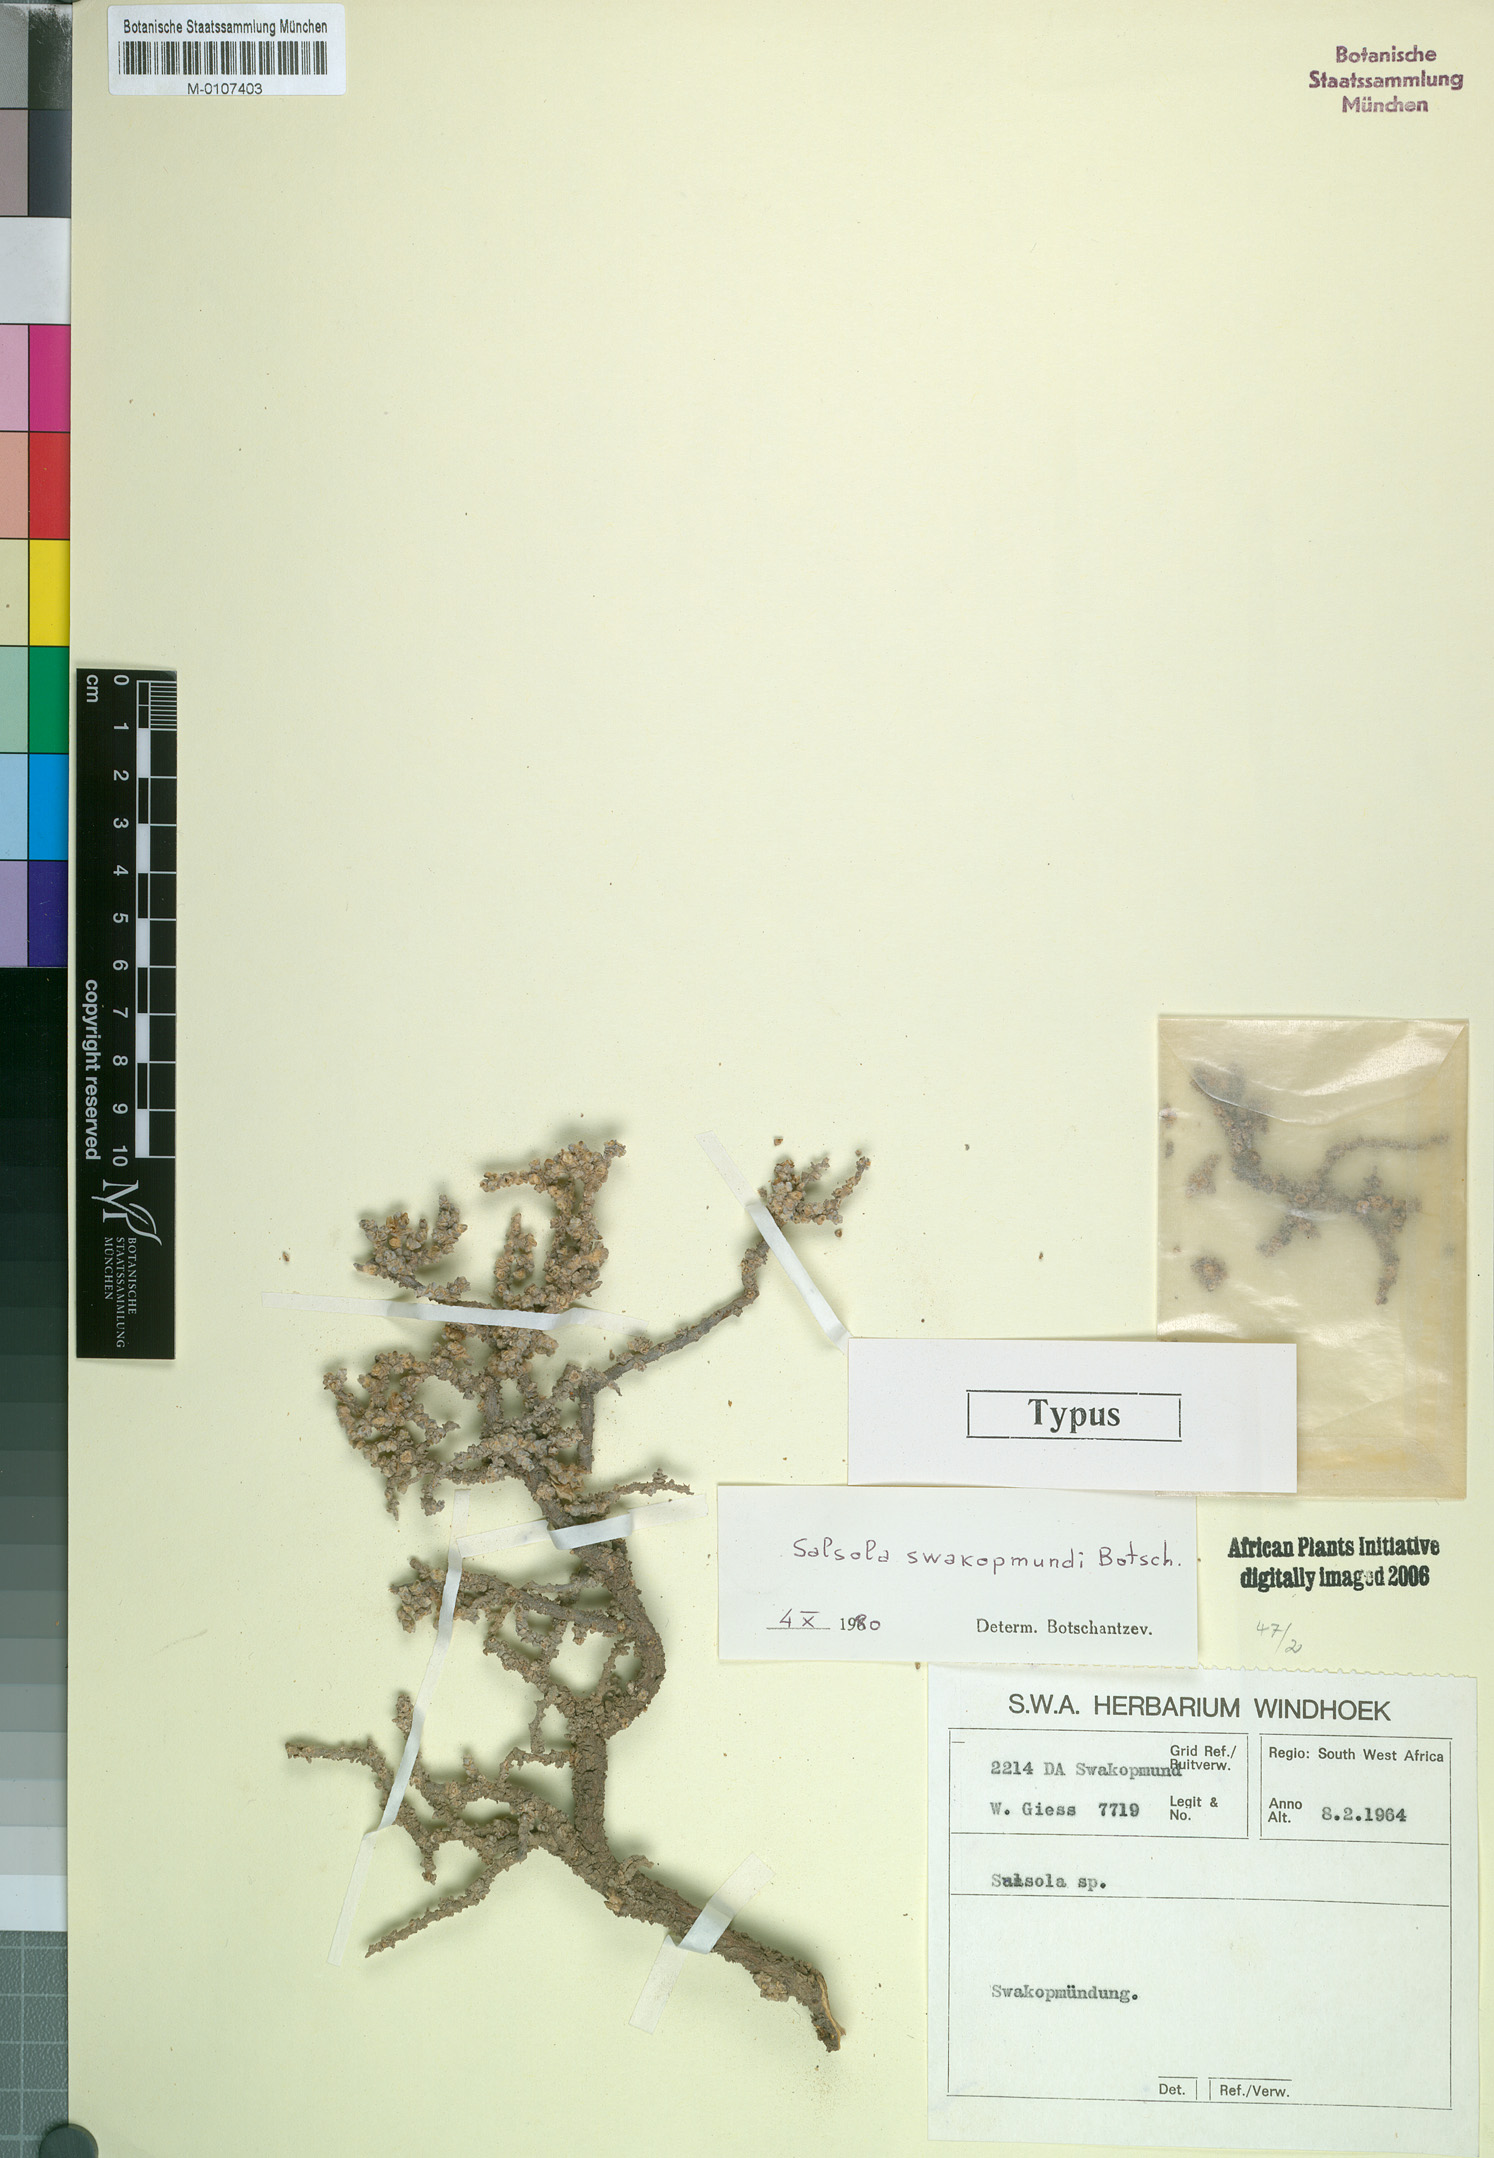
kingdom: Plantae
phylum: Tracheophyta
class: Magnoliopsida
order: Caryophyllales
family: Amaranthaceae
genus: Caroxylon
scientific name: Caroxylon swakopmundi
